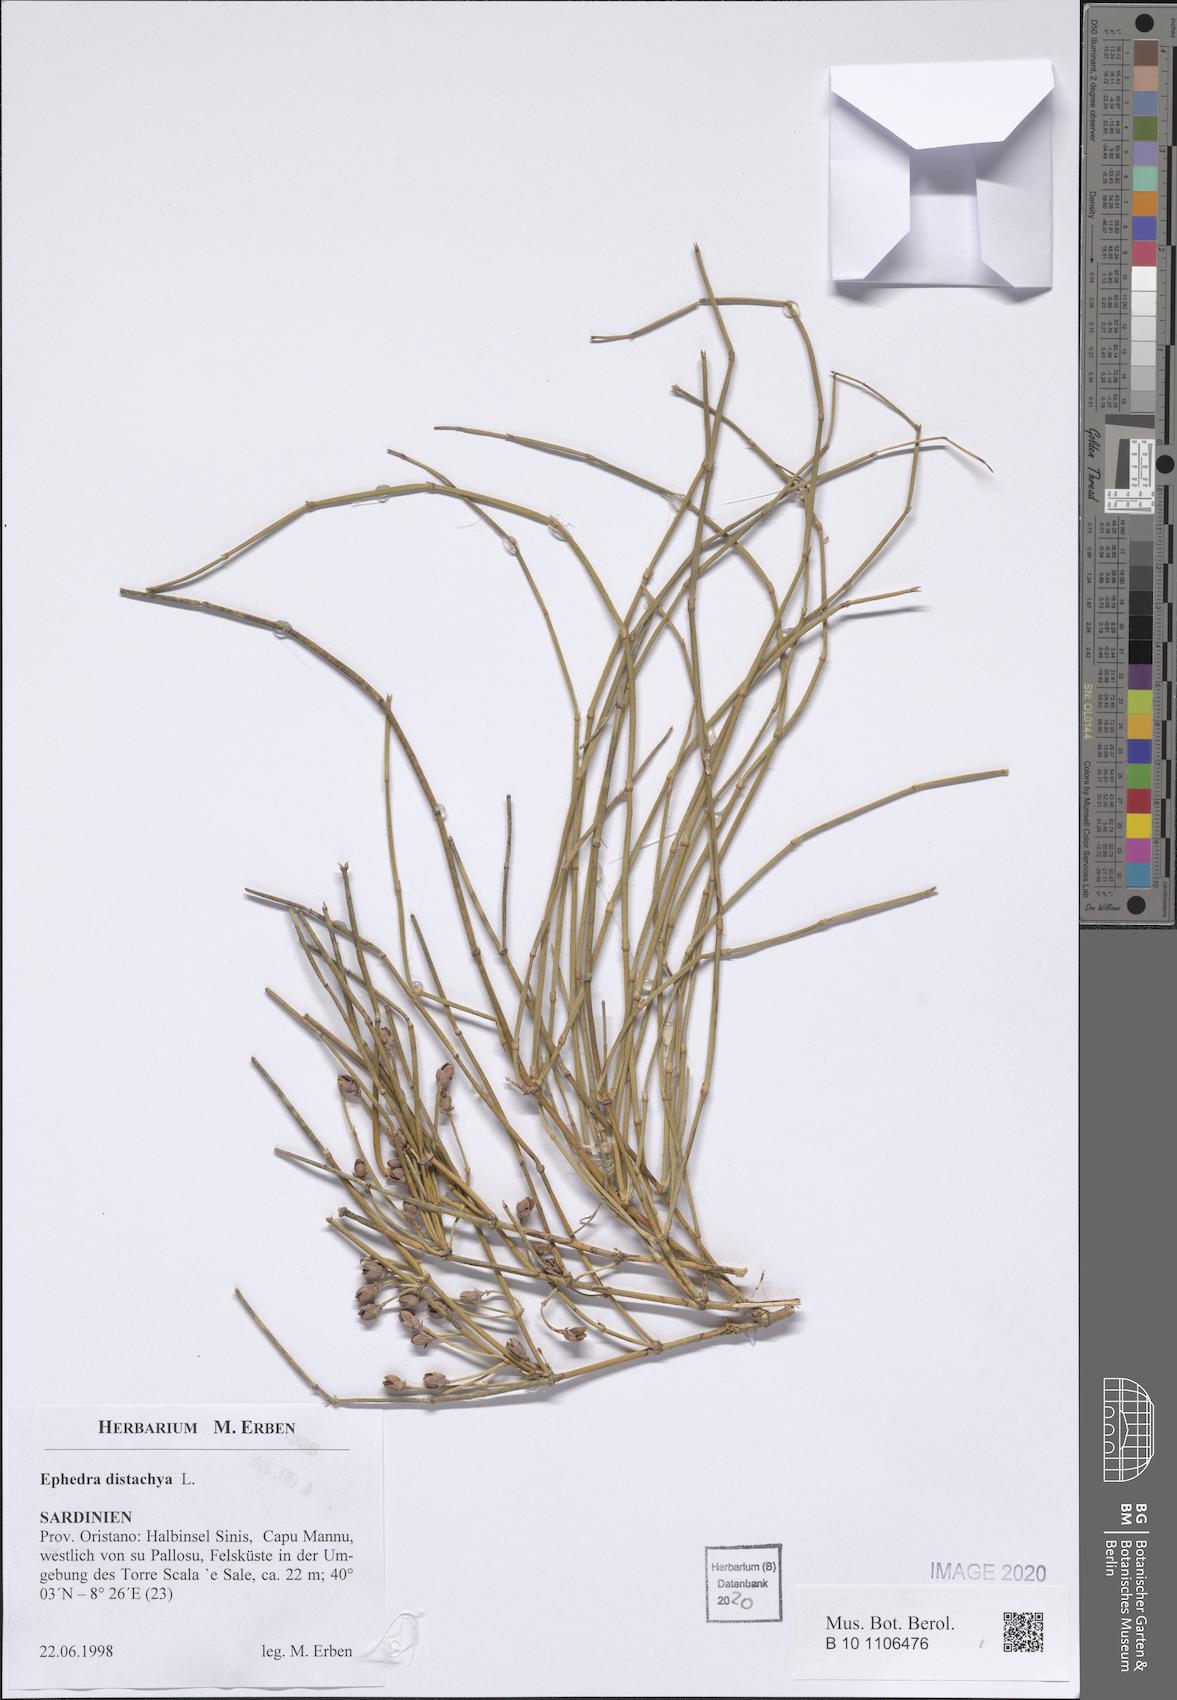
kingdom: Plantae
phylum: Tracheophyta
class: Gnetopsida
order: Ephedrales
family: Ephedraceae
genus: Ephedra
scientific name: Ephedra distachya
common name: Sea grape
